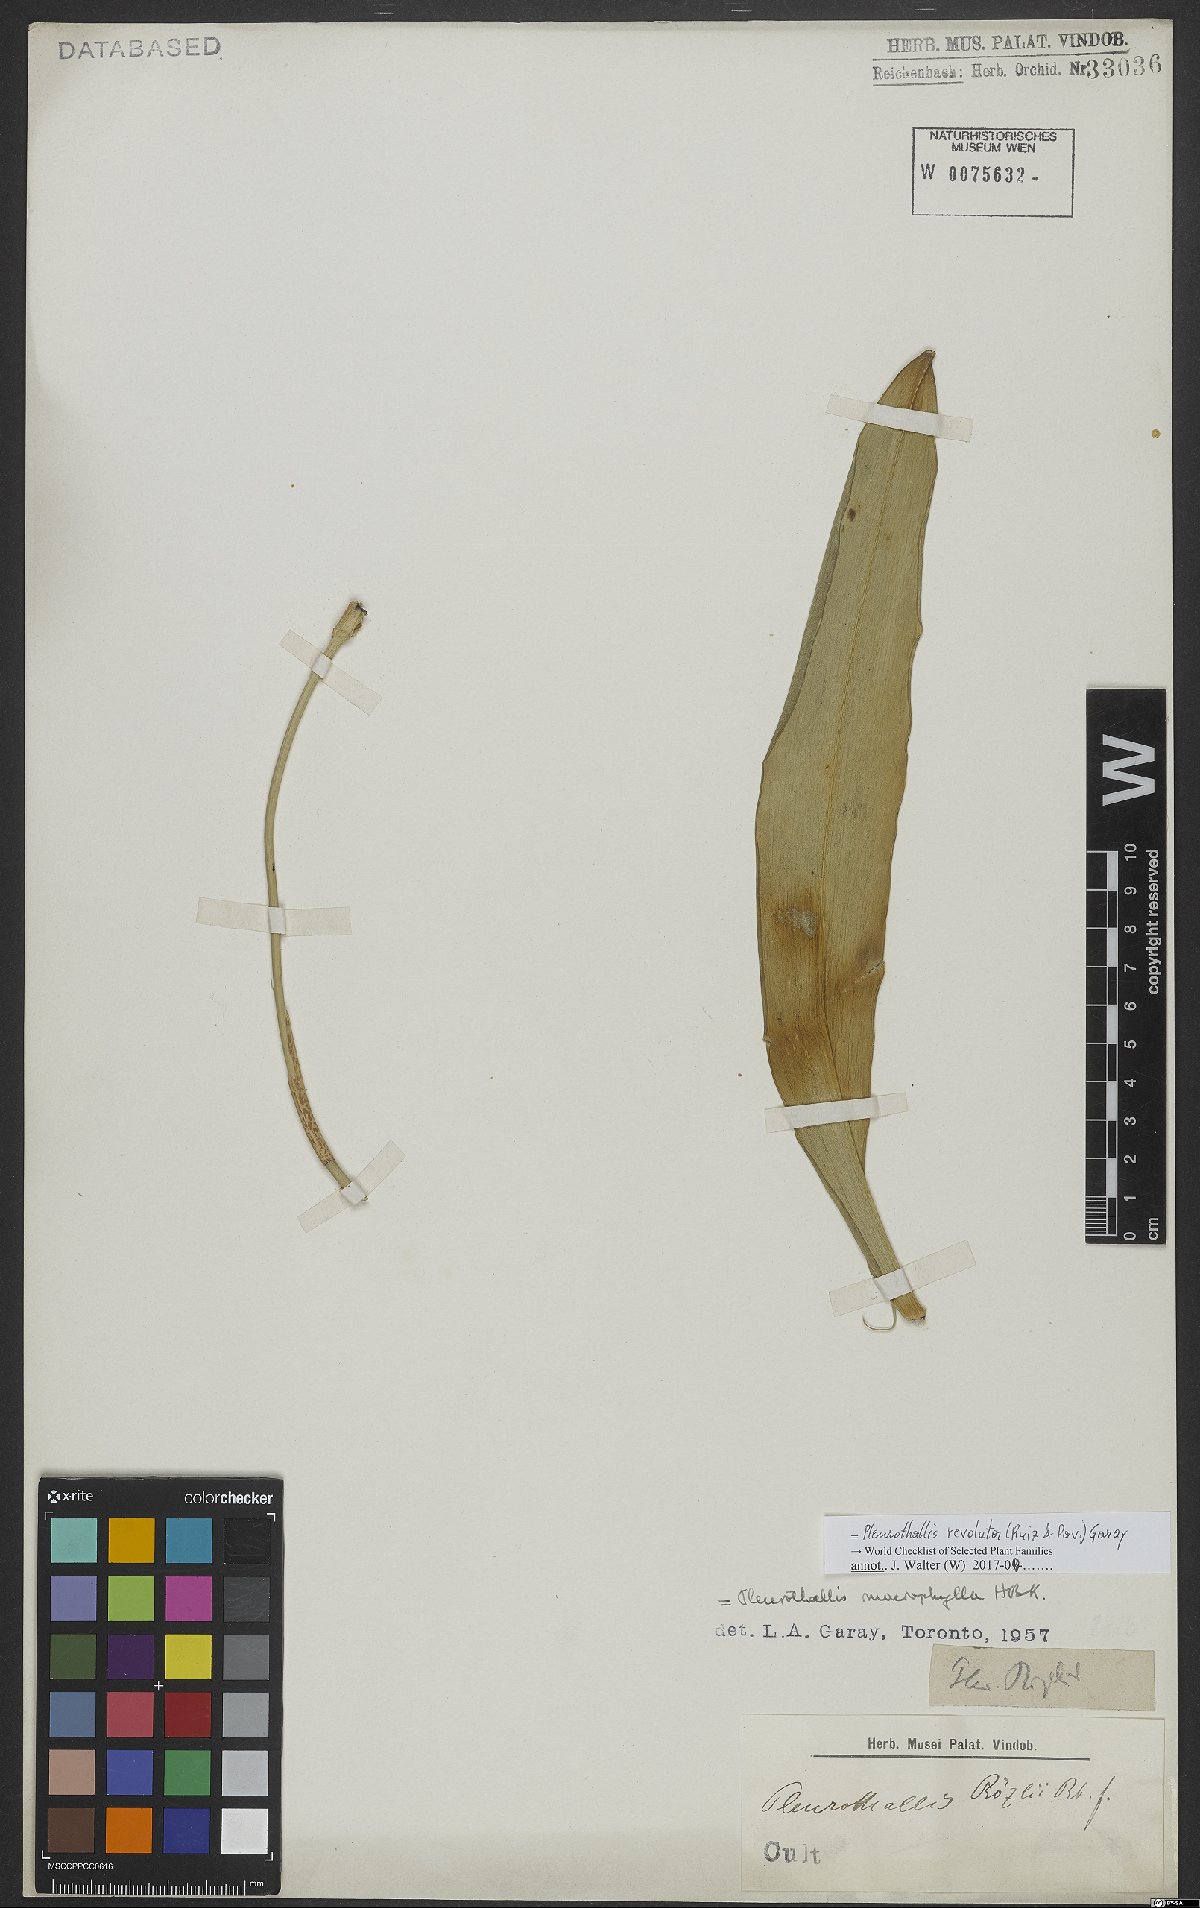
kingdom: Plantae
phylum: Tracheophyta
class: Liliopsida
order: Asparagales
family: Orchidaceae
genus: Pleurothallis
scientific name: Pleurothallis revoluta
